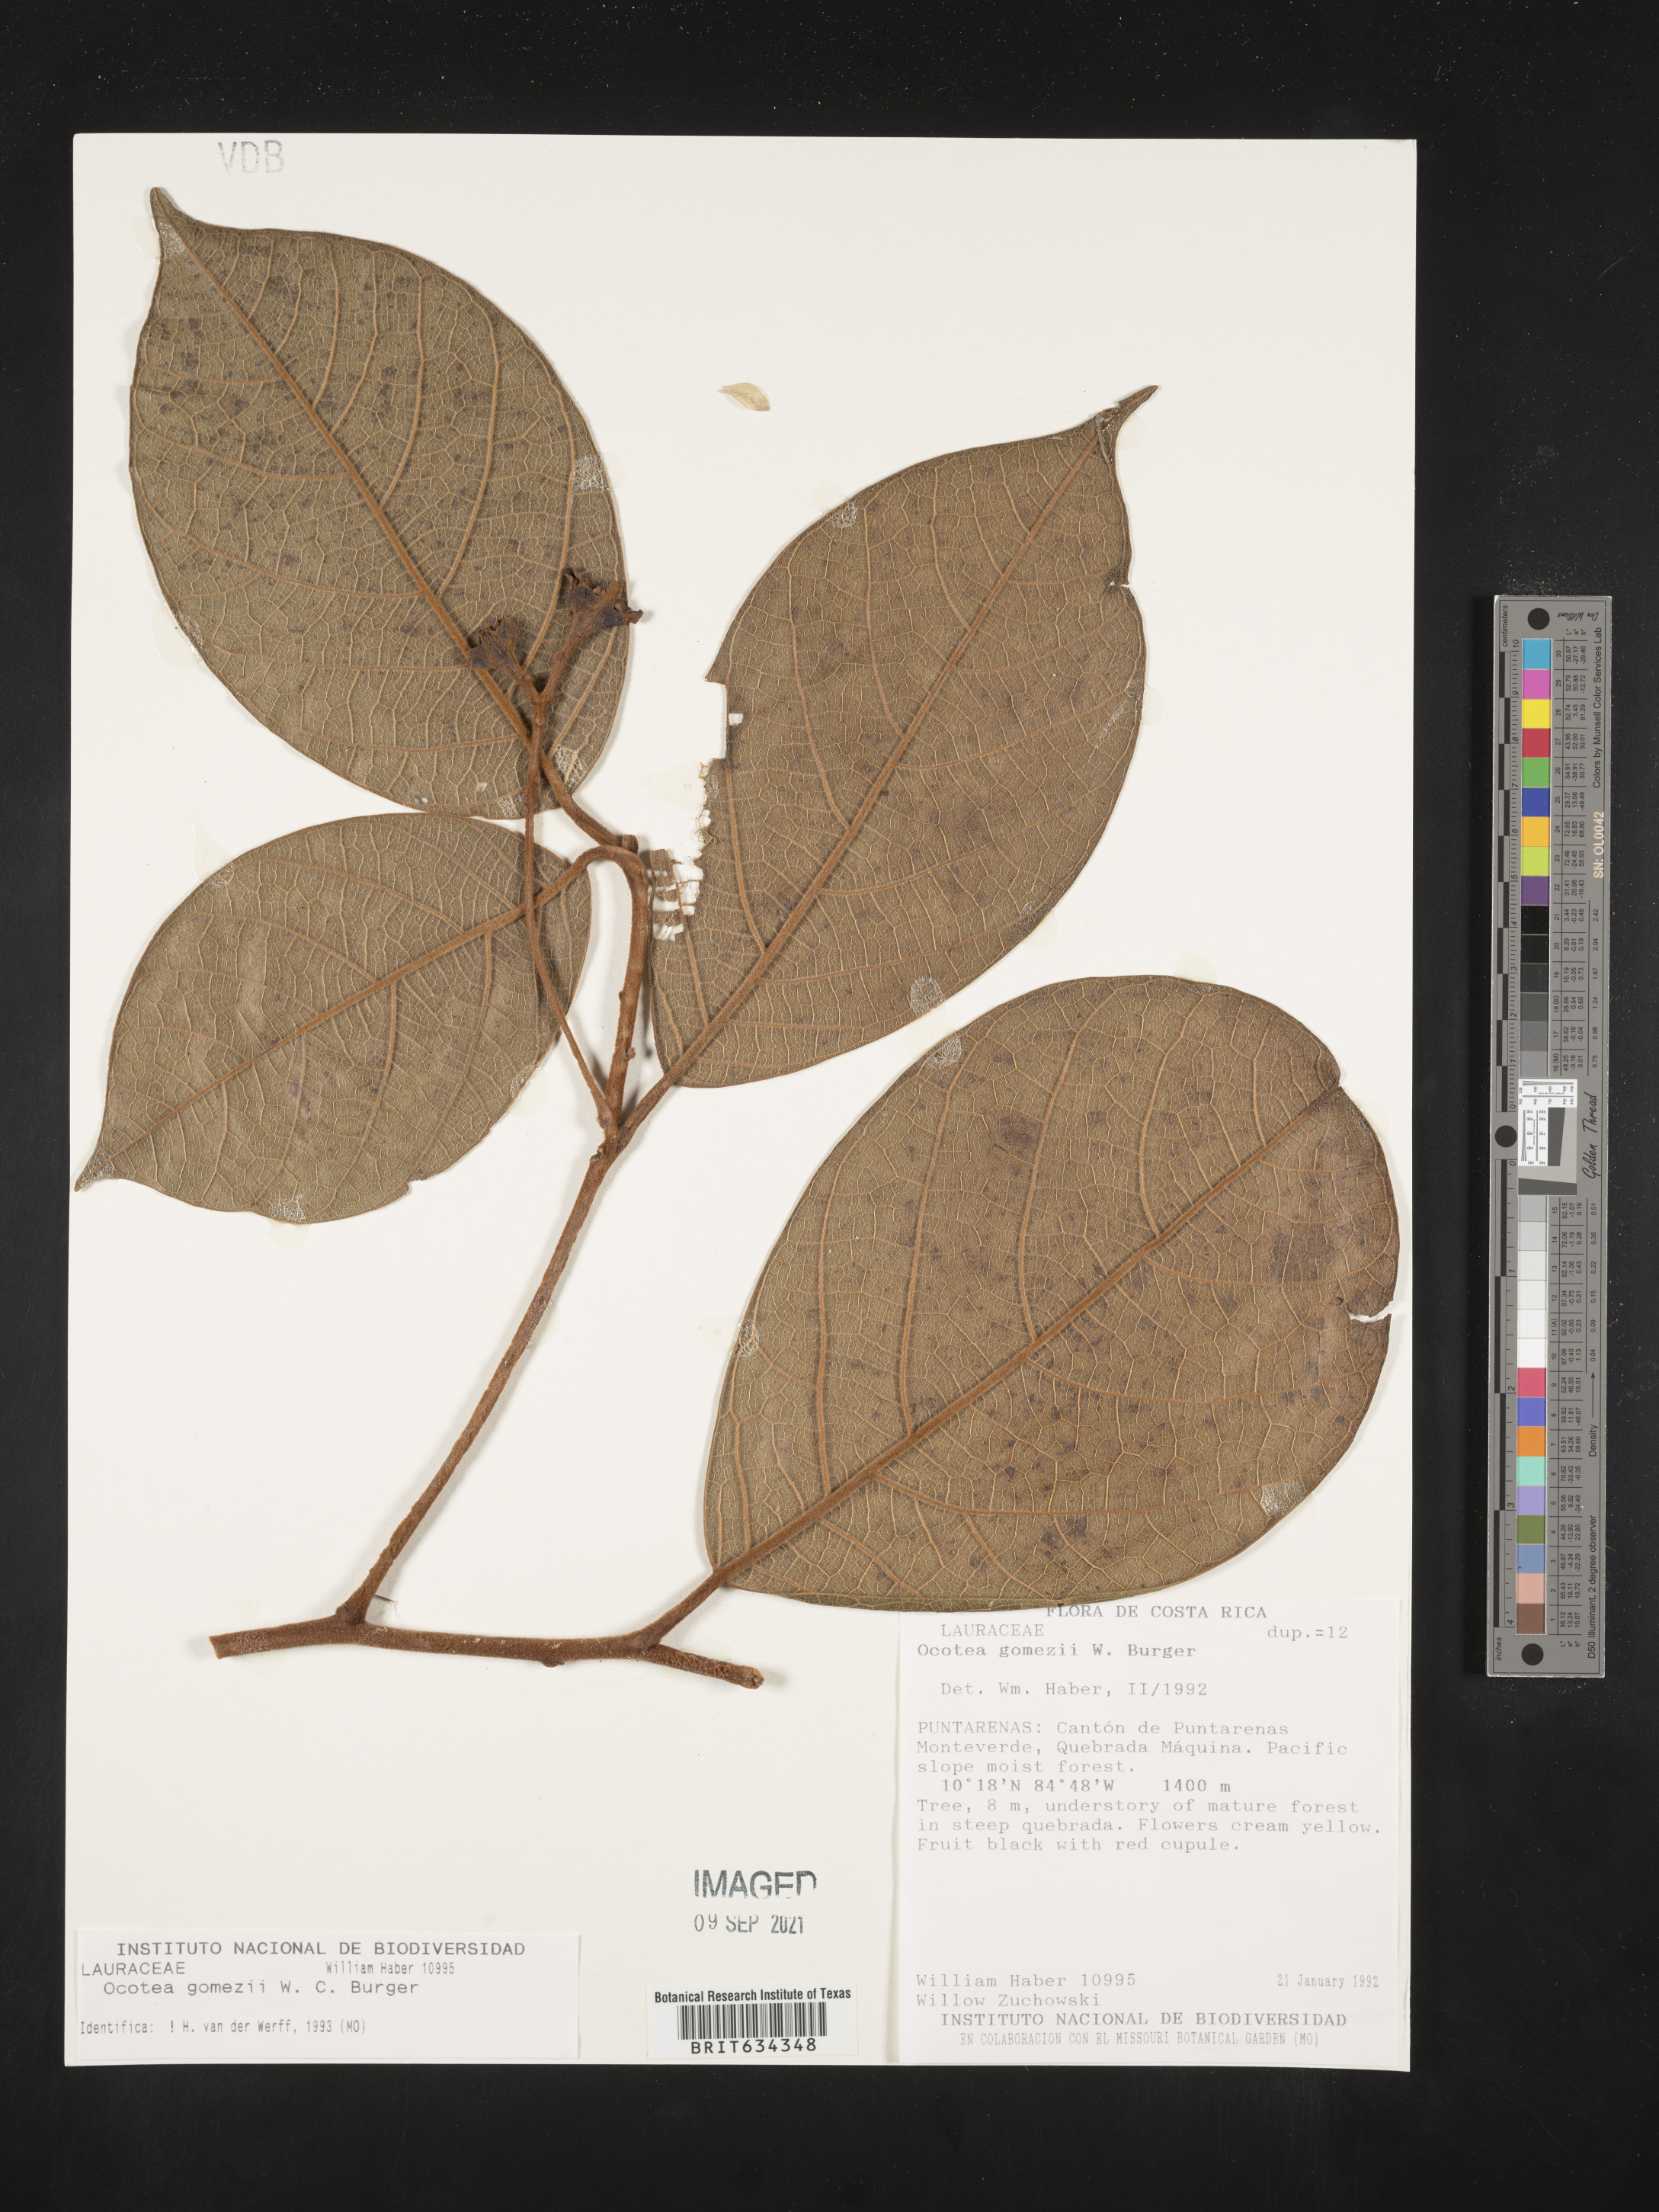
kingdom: Plantae
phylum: Tracheophyta
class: Magnoliopsida
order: Laurales
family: Lauraceae
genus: Ocotea
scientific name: Ocotea
